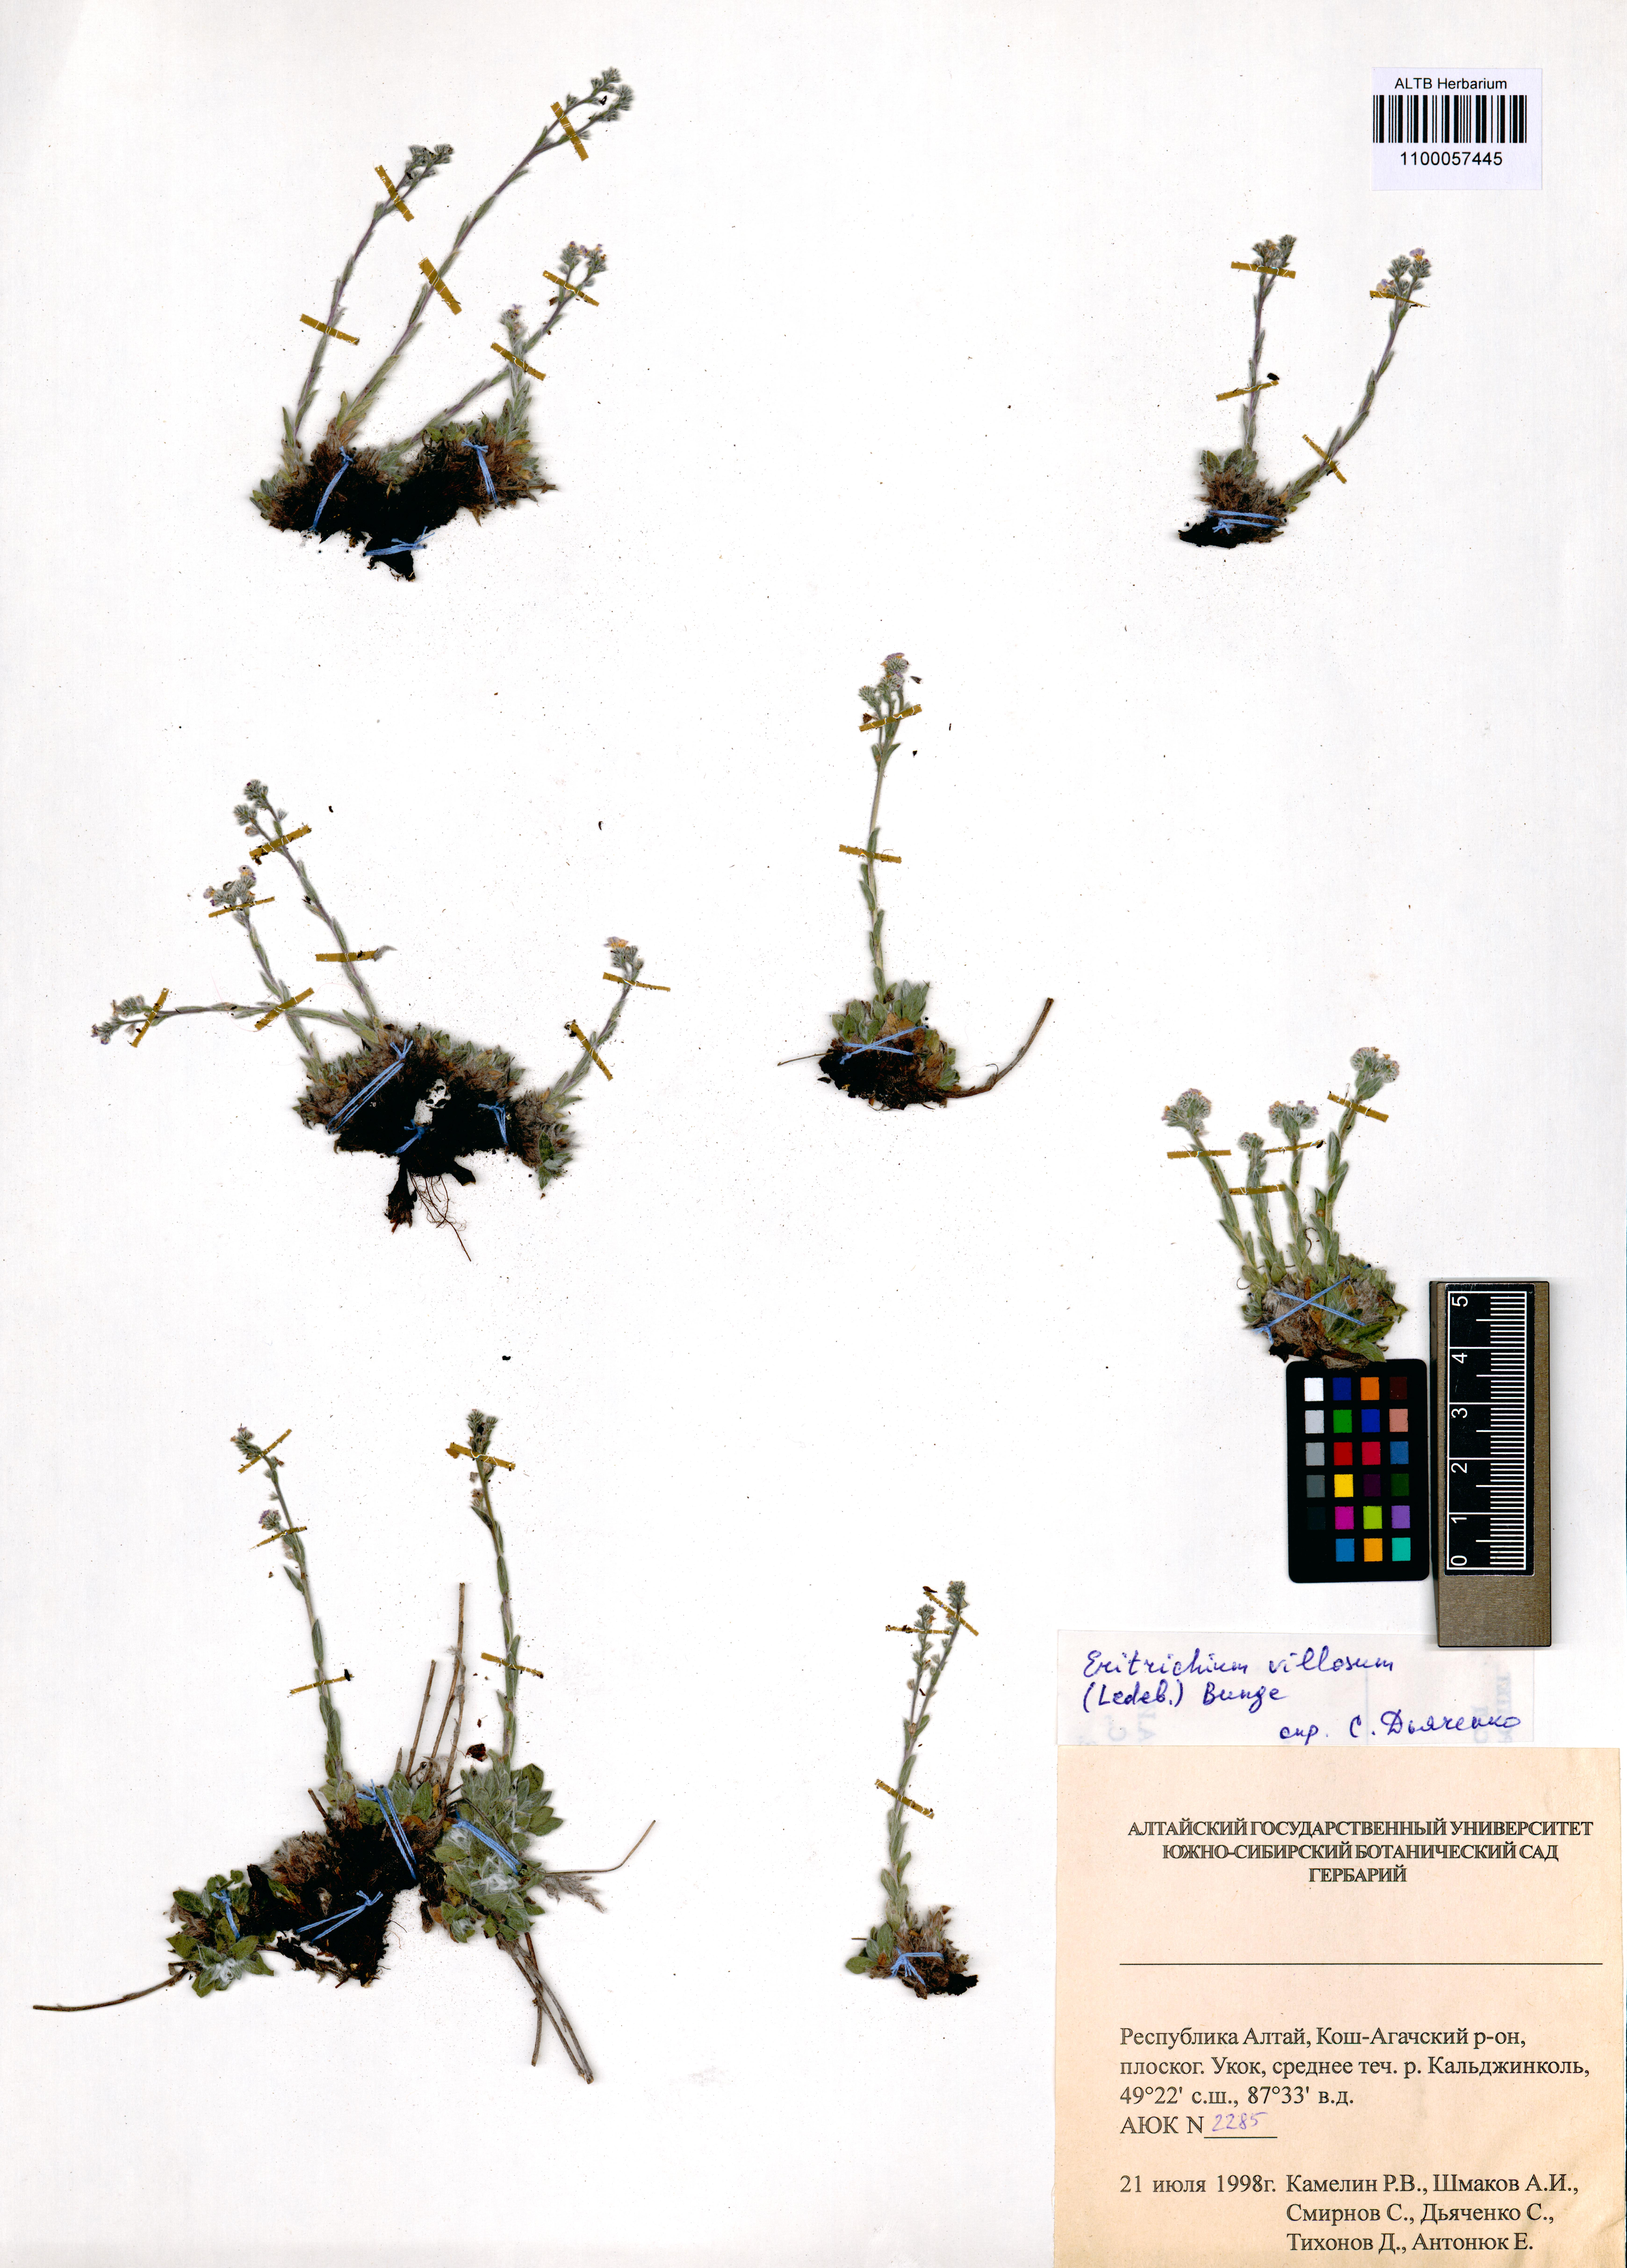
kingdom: Plantae
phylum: Tracheophyta
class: Magnoliopsida
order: Boraginales
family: Boraginaceae
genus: Eritrichium
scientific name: Eritrichium villosum
